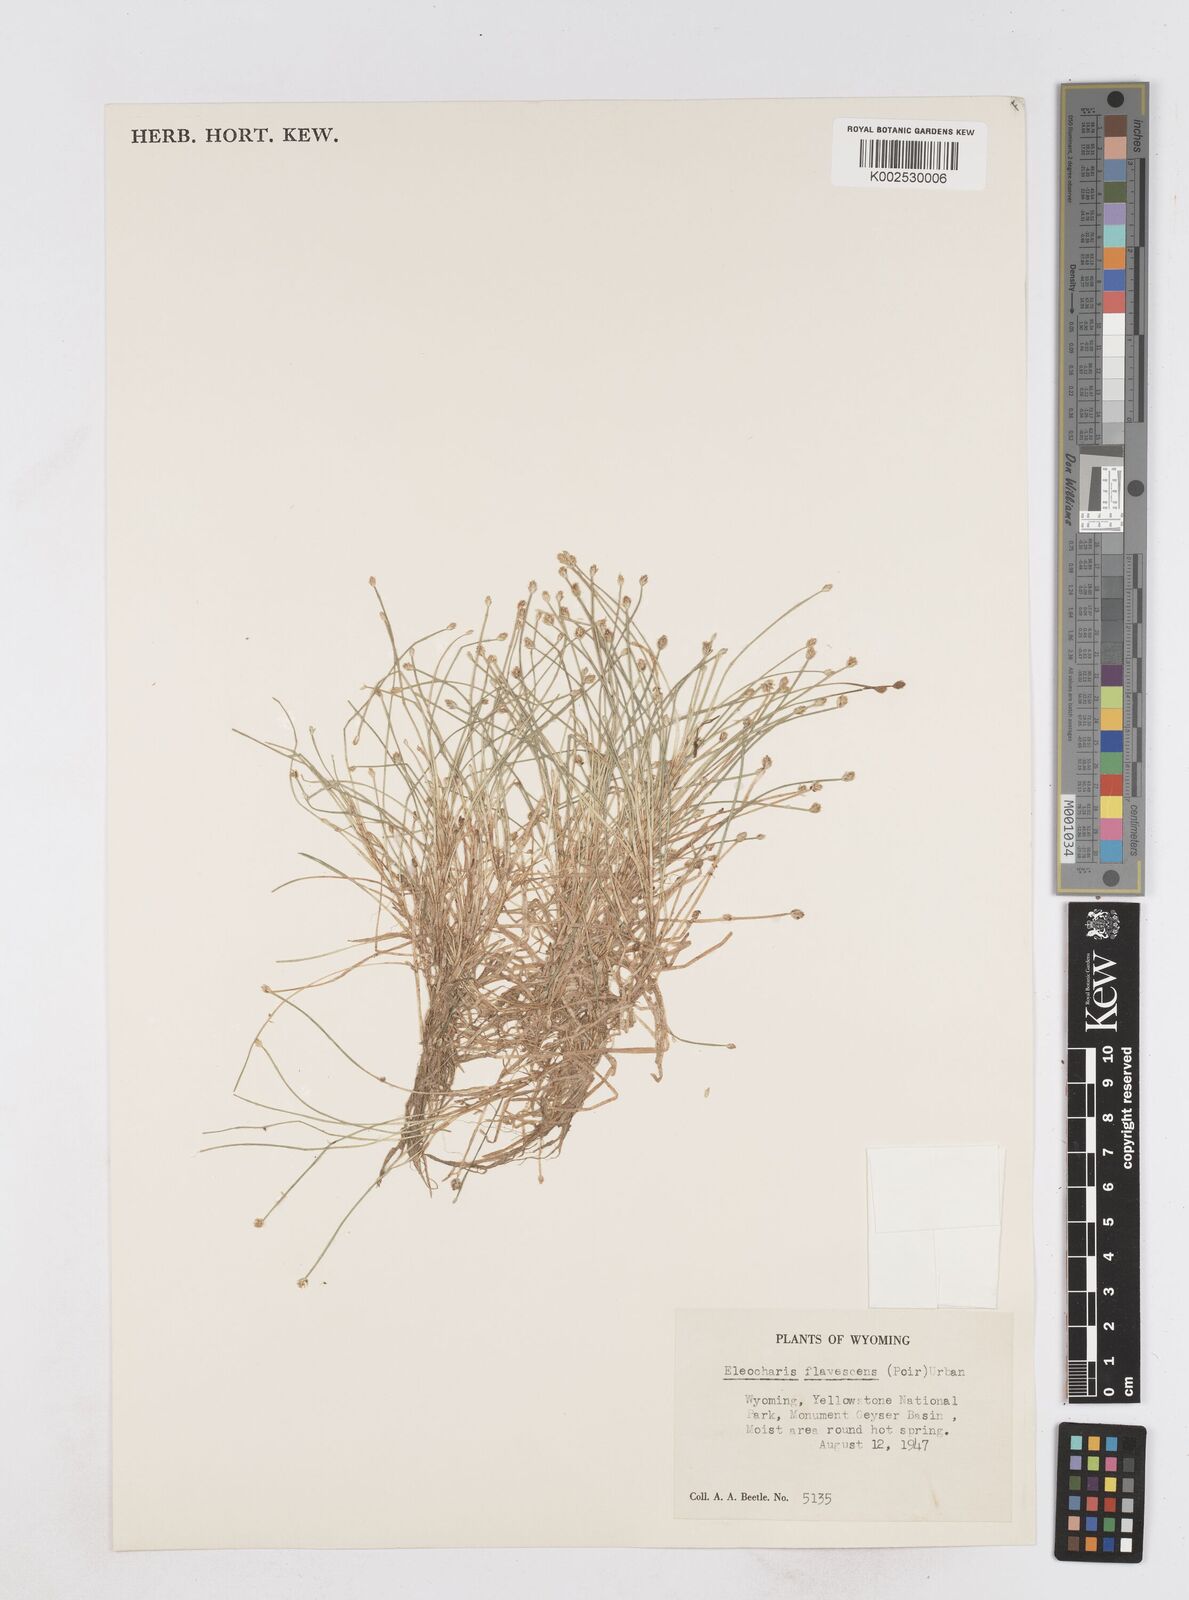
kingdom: Plantae
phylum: Tracheophyta
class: Liliopsida
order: Poales
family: Cyperaceae
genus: Eleocharis
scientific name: Eleocharis flavescens
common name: Yellow spikerush
